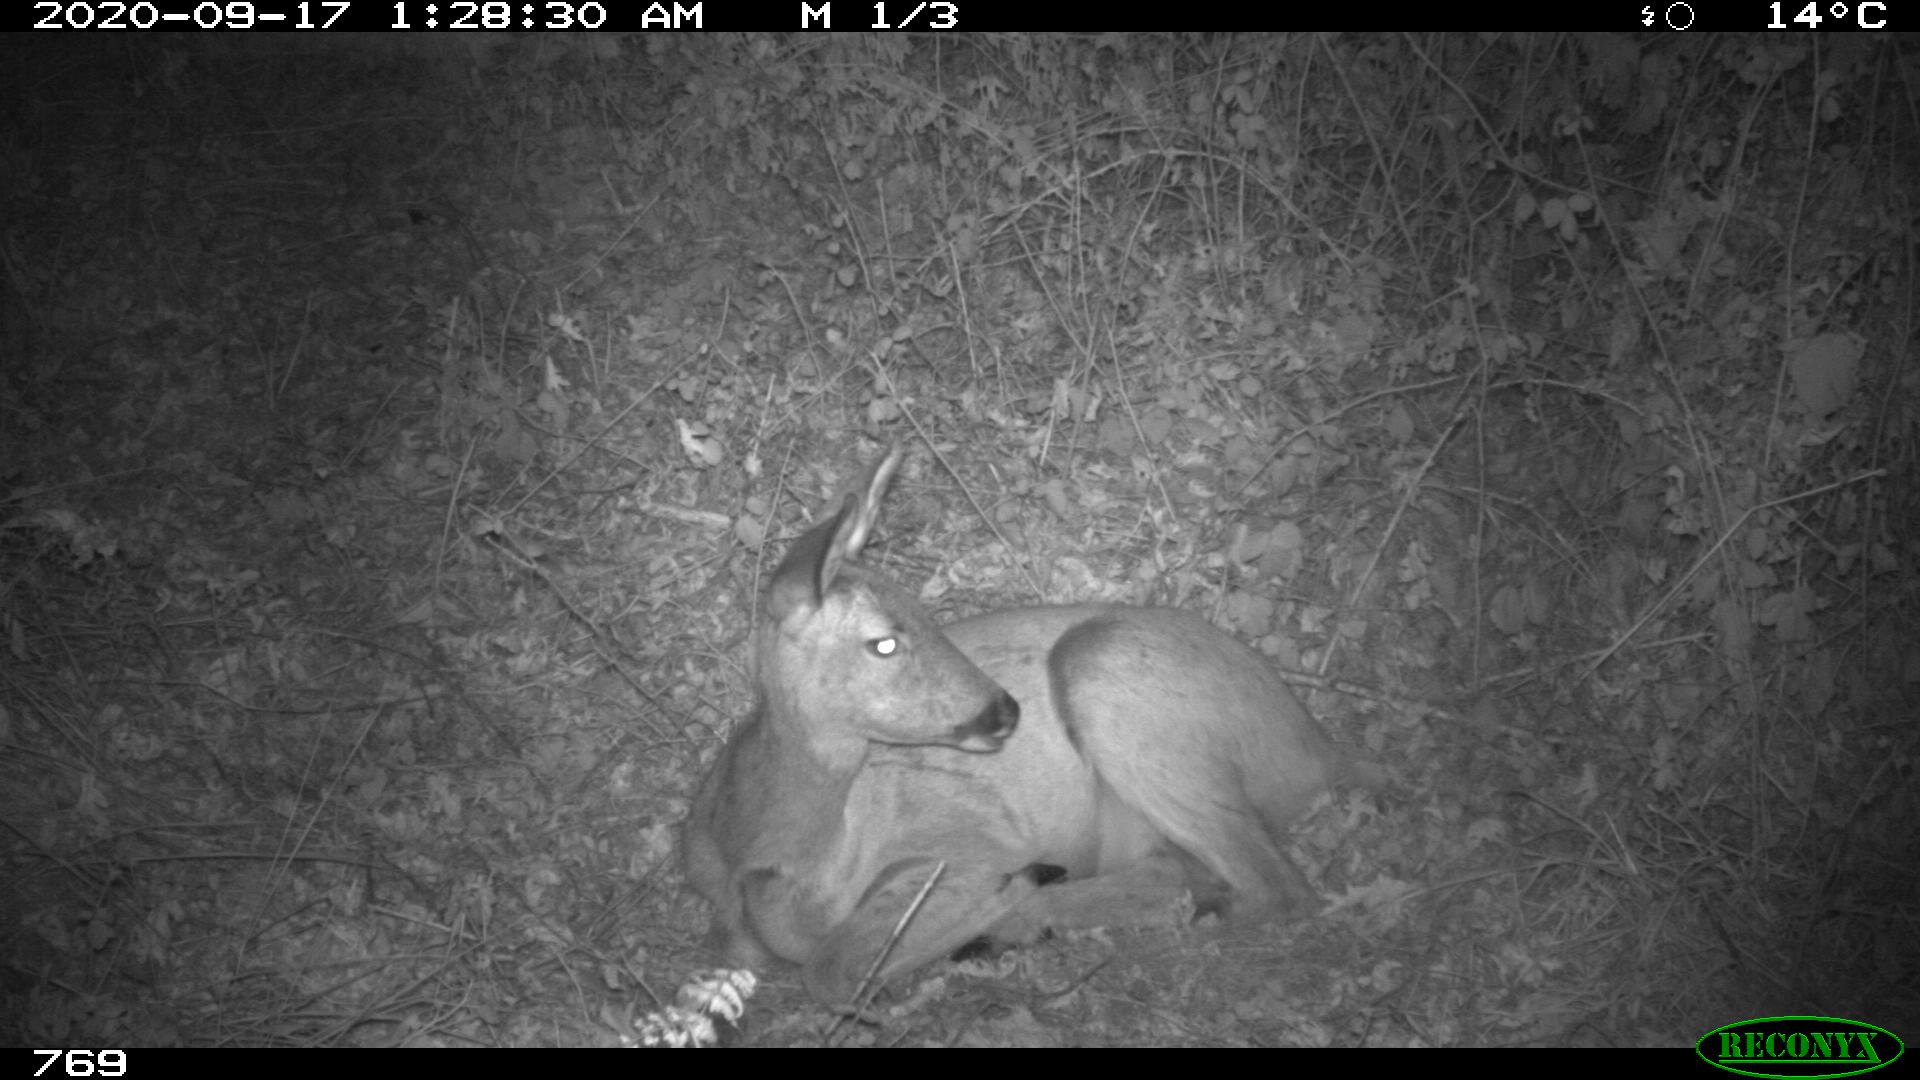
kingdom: Animalia
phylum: Chordata
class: Mammalia
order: Artiodactyla
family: Cervidae
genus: Capreolus
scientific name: Capreolus capreolus
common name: Western roe deer
